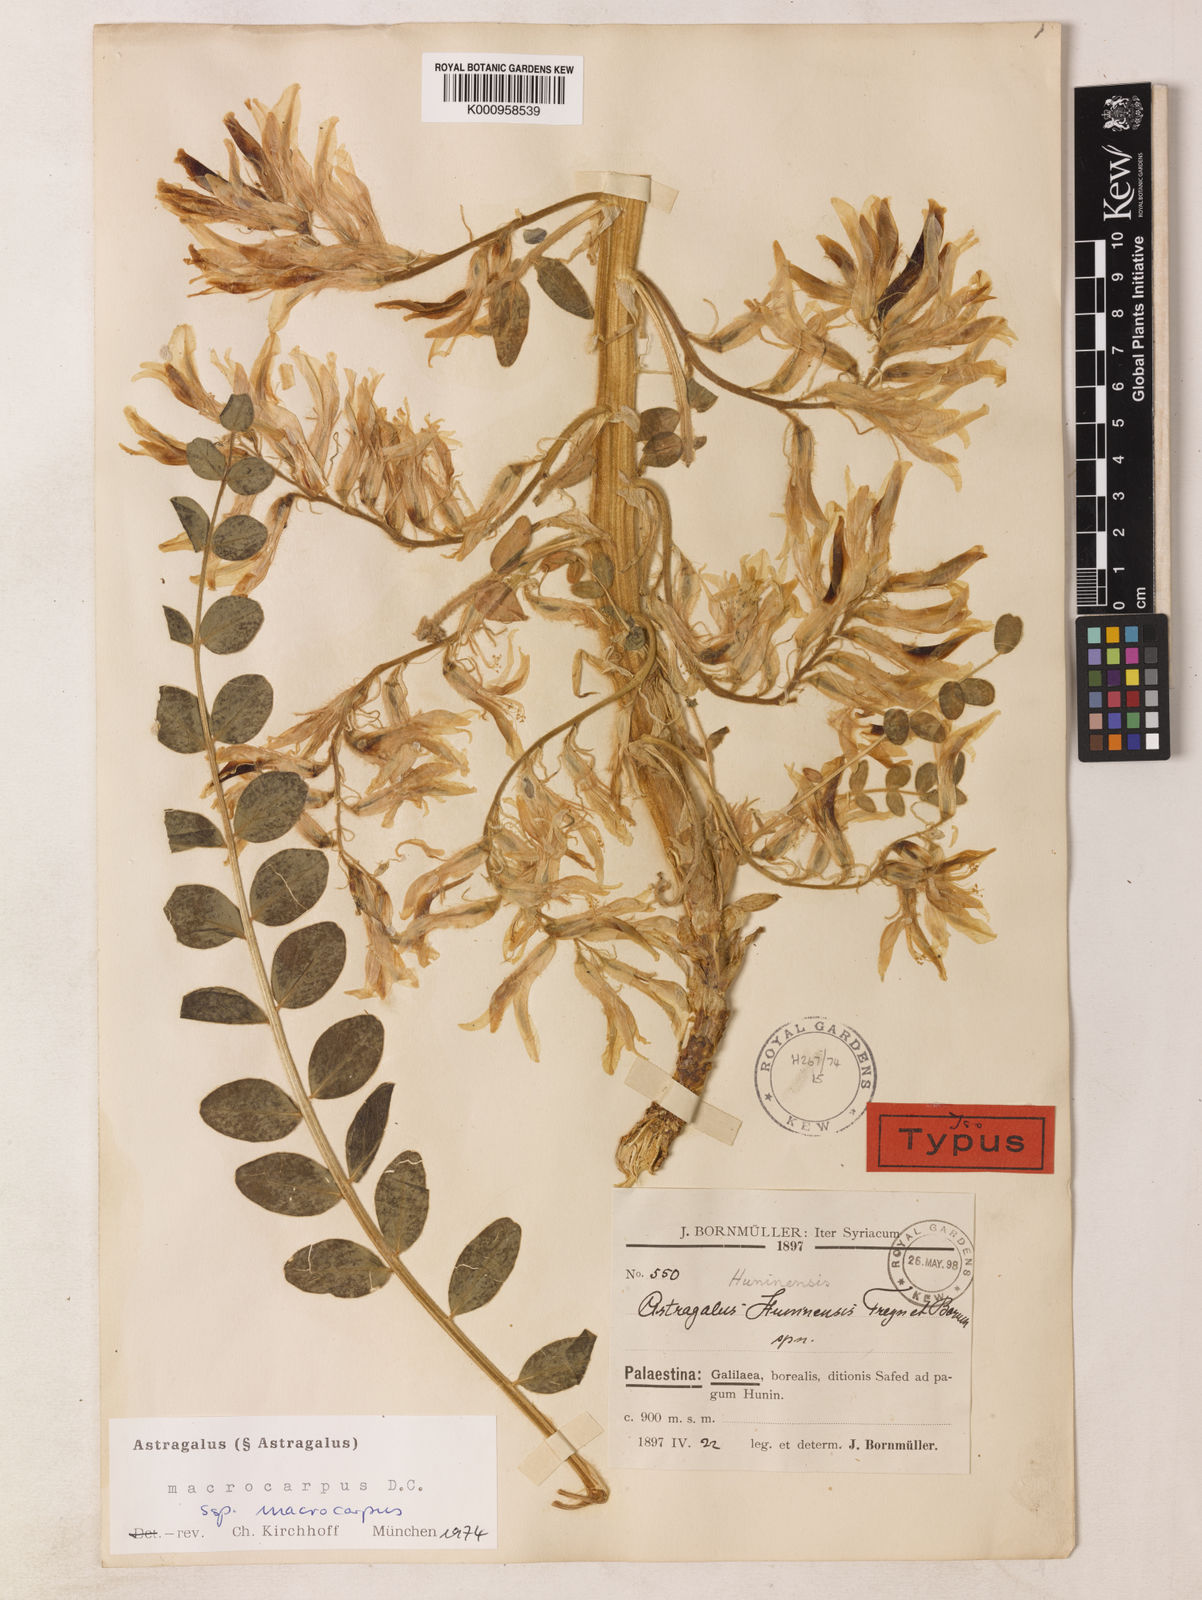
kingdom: Plantae
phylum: Tracheophyta
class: Magnoliopsida
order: Fabales
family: Fabaceae
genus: Astragalus
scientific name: Astragalus macrocarpus
